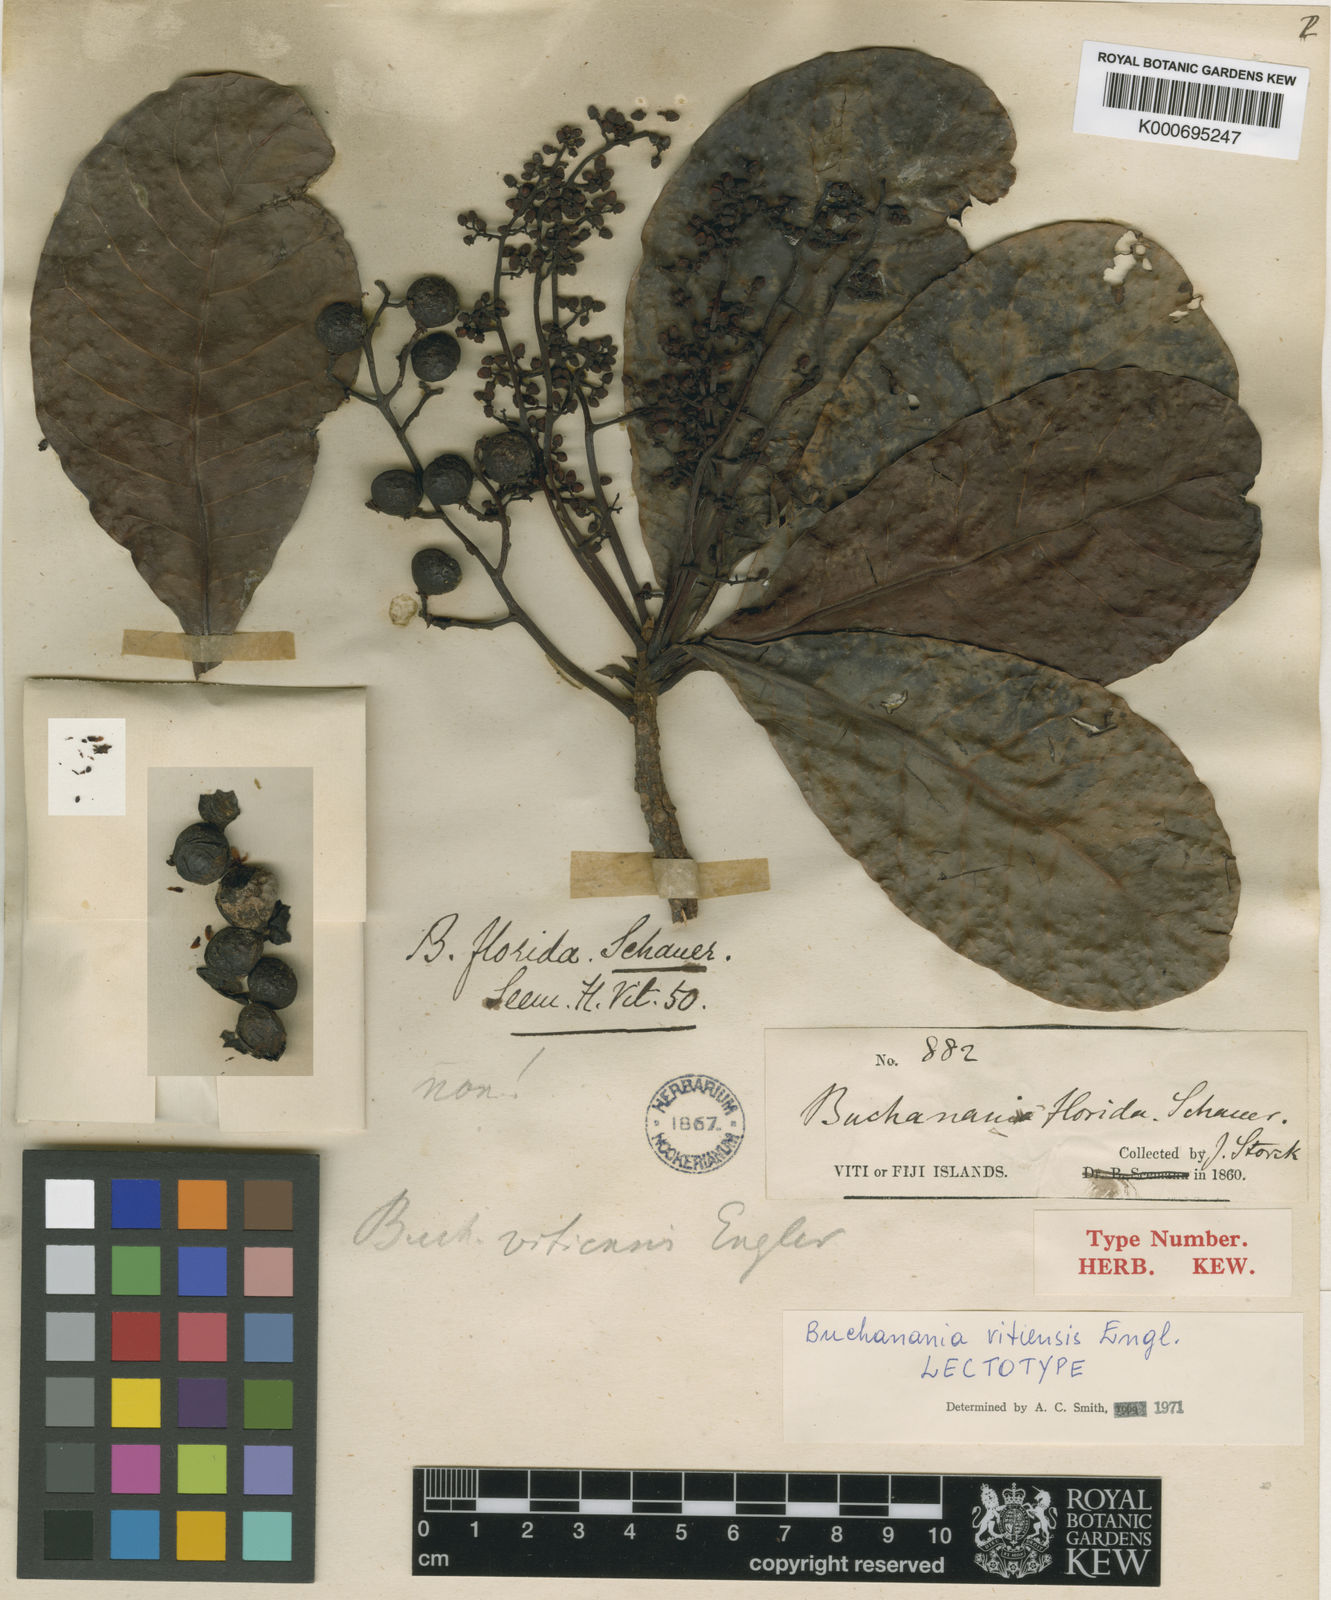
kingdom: Plantae
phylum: Tracheophyta
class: Magnoliopsida
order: Sapindales
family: Anacardiaceae
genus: Buchanania
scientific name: Buchanania vitiensis
